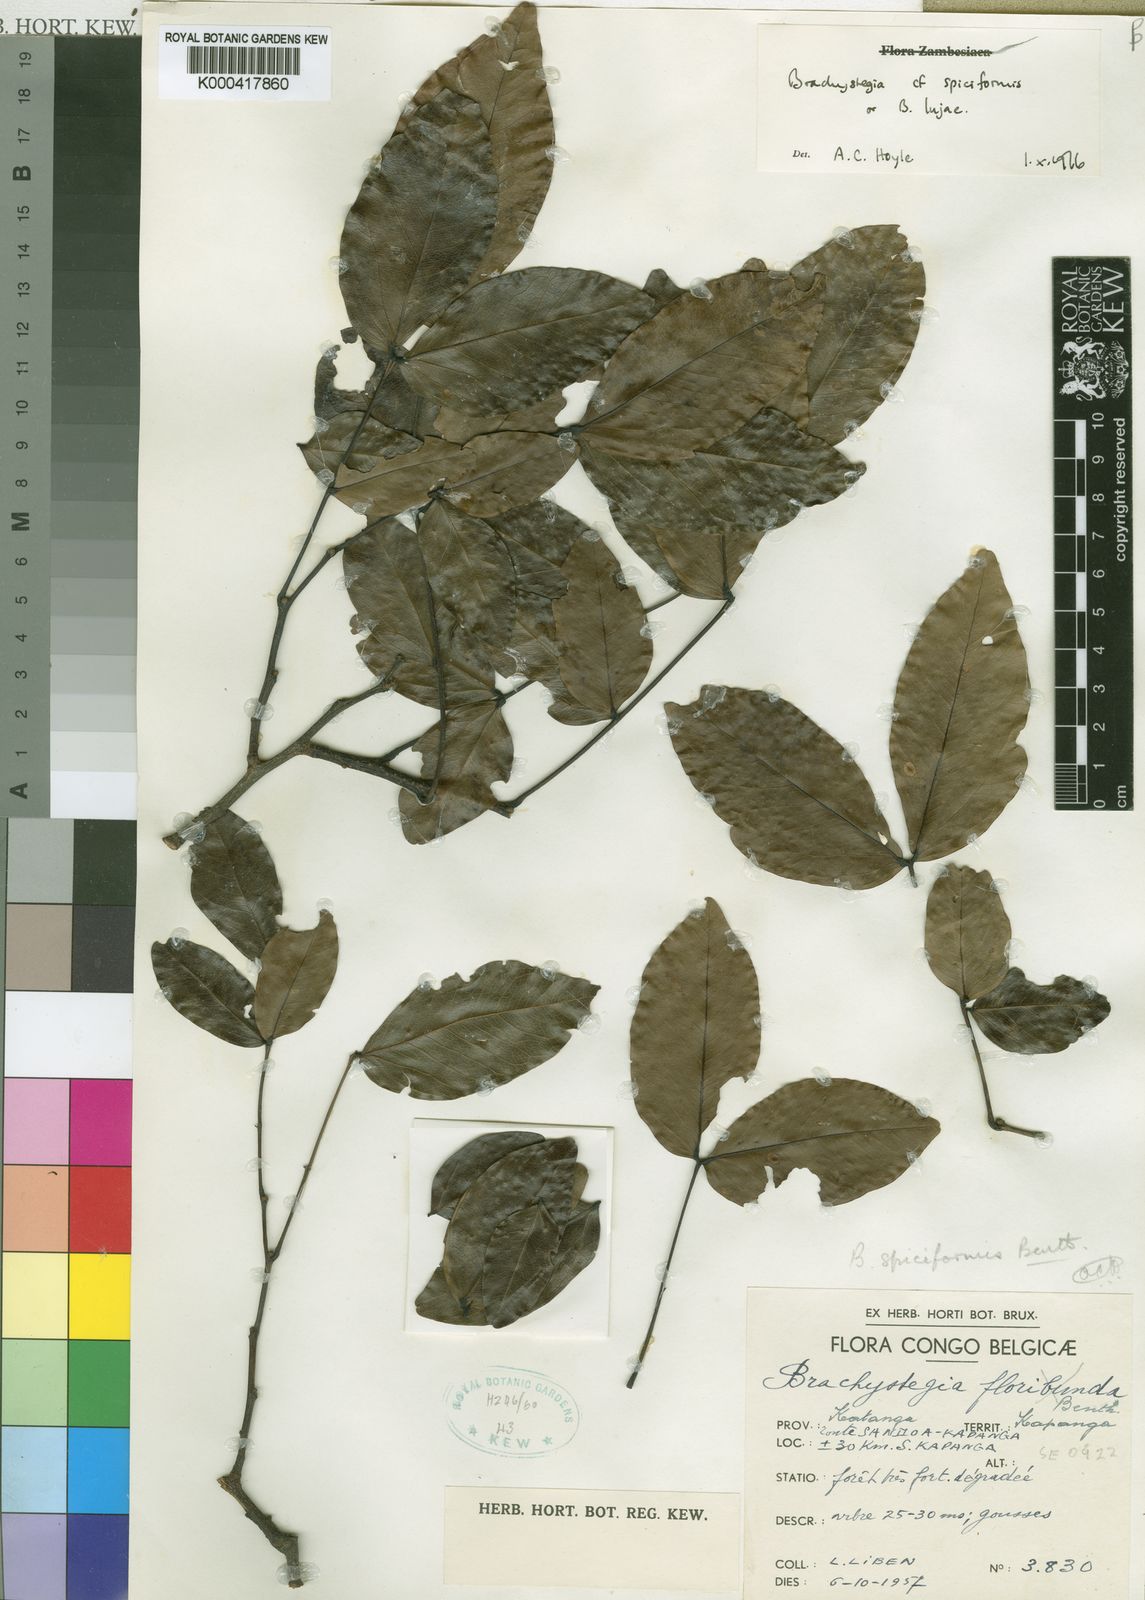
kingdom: Plantae
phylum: Tracheophyta
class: Magnoliopsida
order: Fabales
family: Fabaceae
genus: Brachystegia
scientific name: Brachystegia
